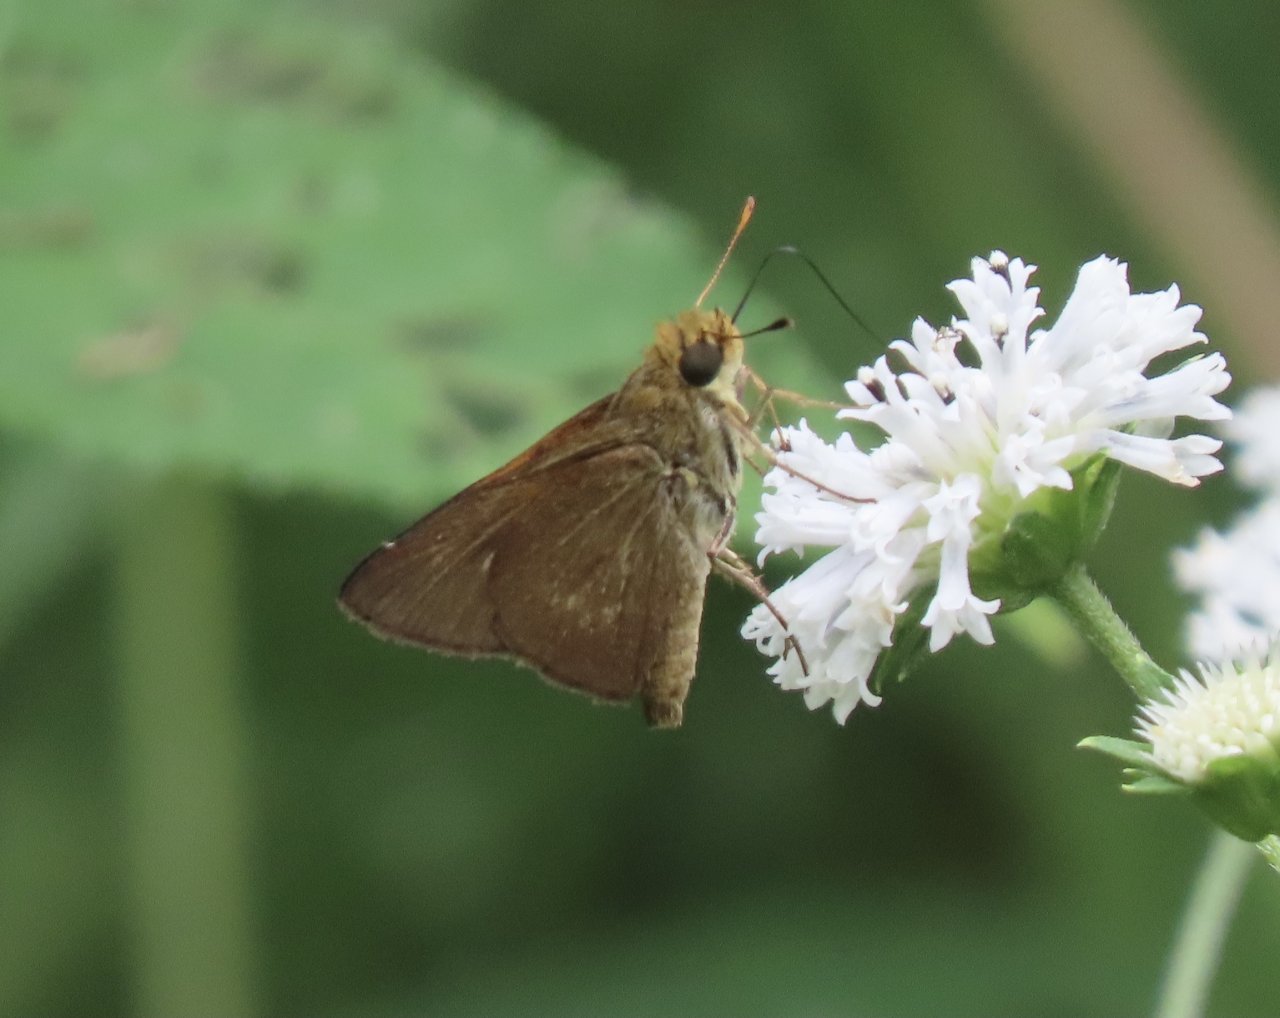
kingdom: Animalia
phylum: Arthropoda
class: Insecta
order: Lepidoptera
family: Hesperiidae
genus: Polites
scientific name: Polites themistocles
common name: Tawny-edged Skipper
